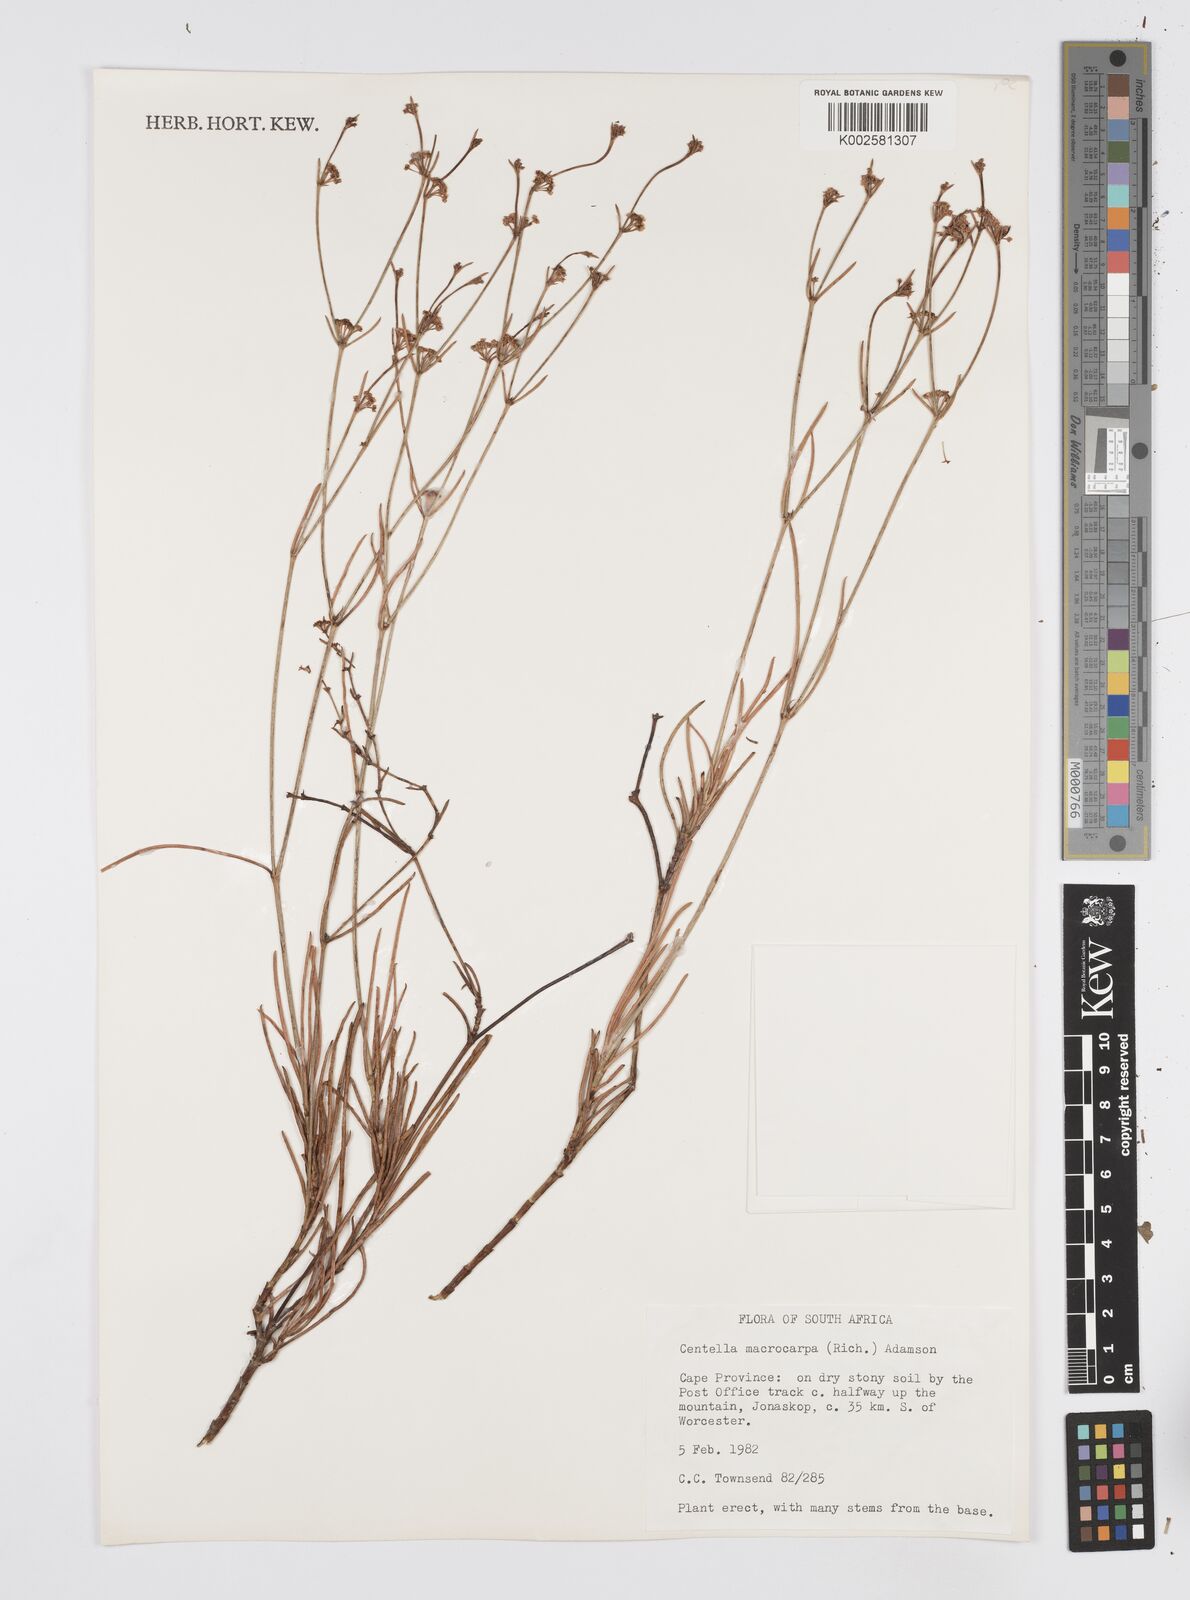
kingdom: Plantae
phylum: Tracheophyta
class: Magnoliopsida
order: Apiales
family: Apiaceae
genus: Centella
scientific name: Centella macrocarpa
